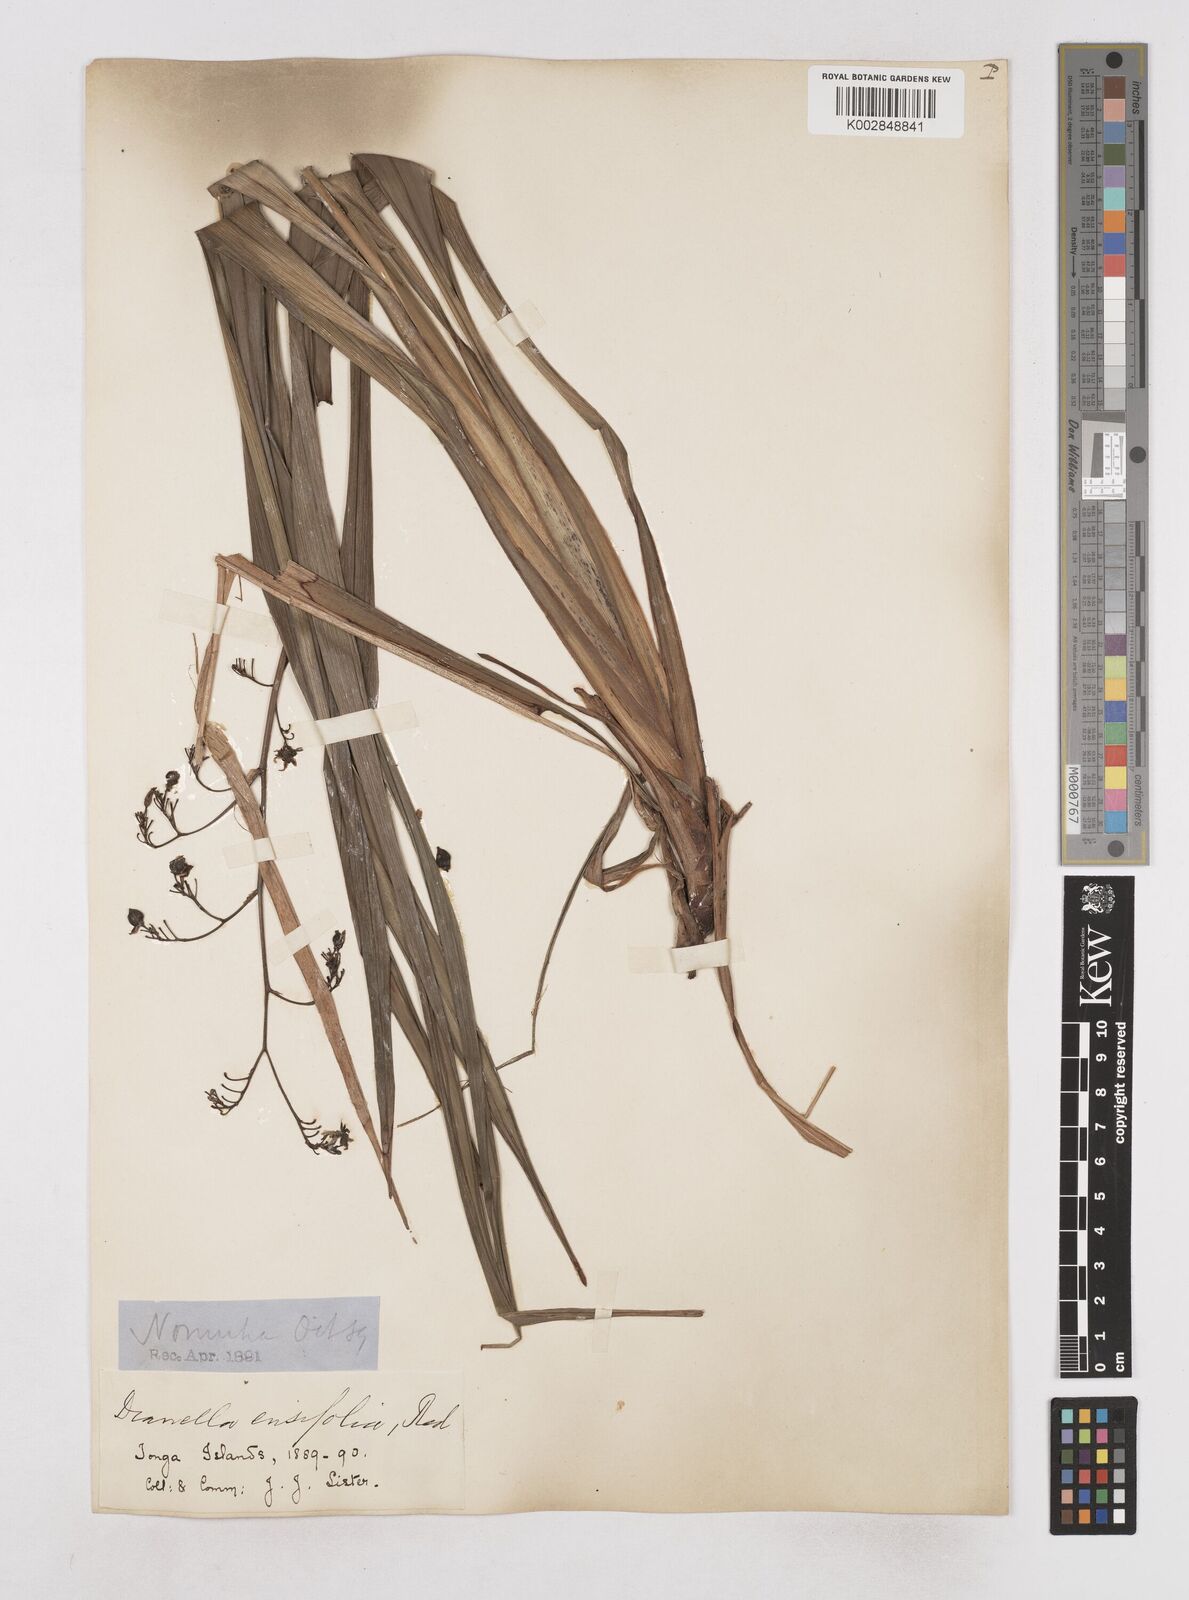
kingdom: Plantae
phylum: Tracheophyta
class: Liliopsida
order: Asparagales
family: Asphodelaceae
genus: Dianella
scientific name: Dianella ensifolia
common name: New zealand lilyplant
